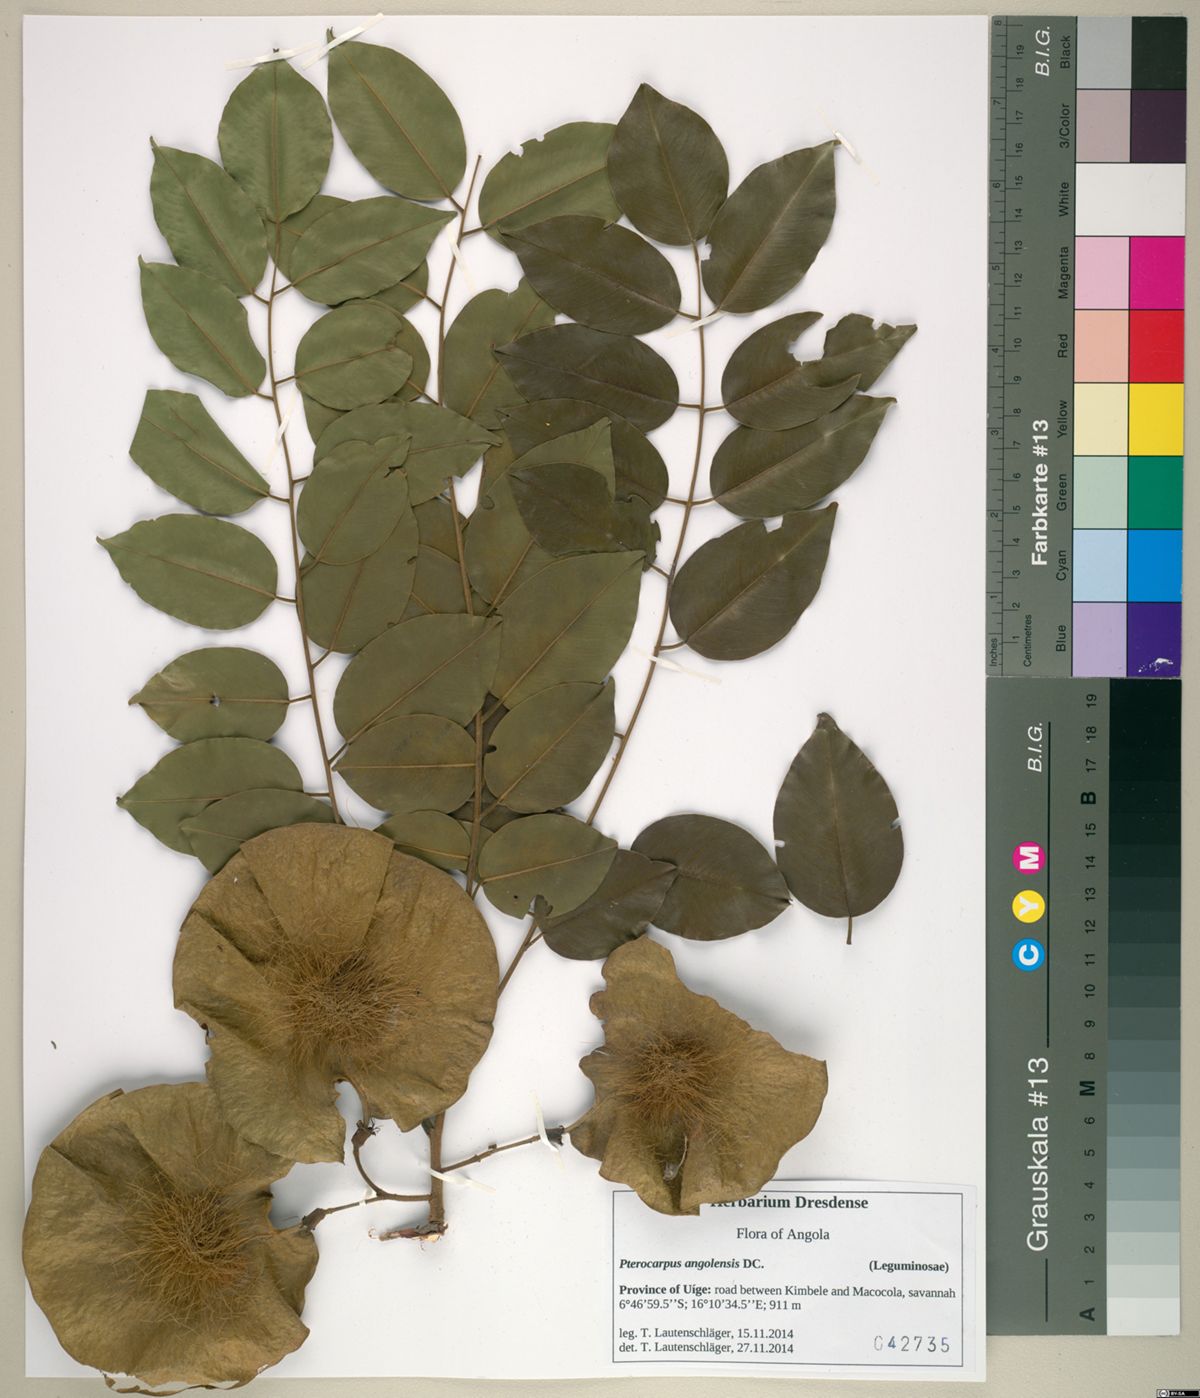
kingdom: Plantae
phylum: Tracheophyta
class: Magnoliopsida
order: Fabales
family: Fabaceae
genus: Pterocarpus
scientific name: Pterocarpus angolensis
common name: Bloodwood tree
